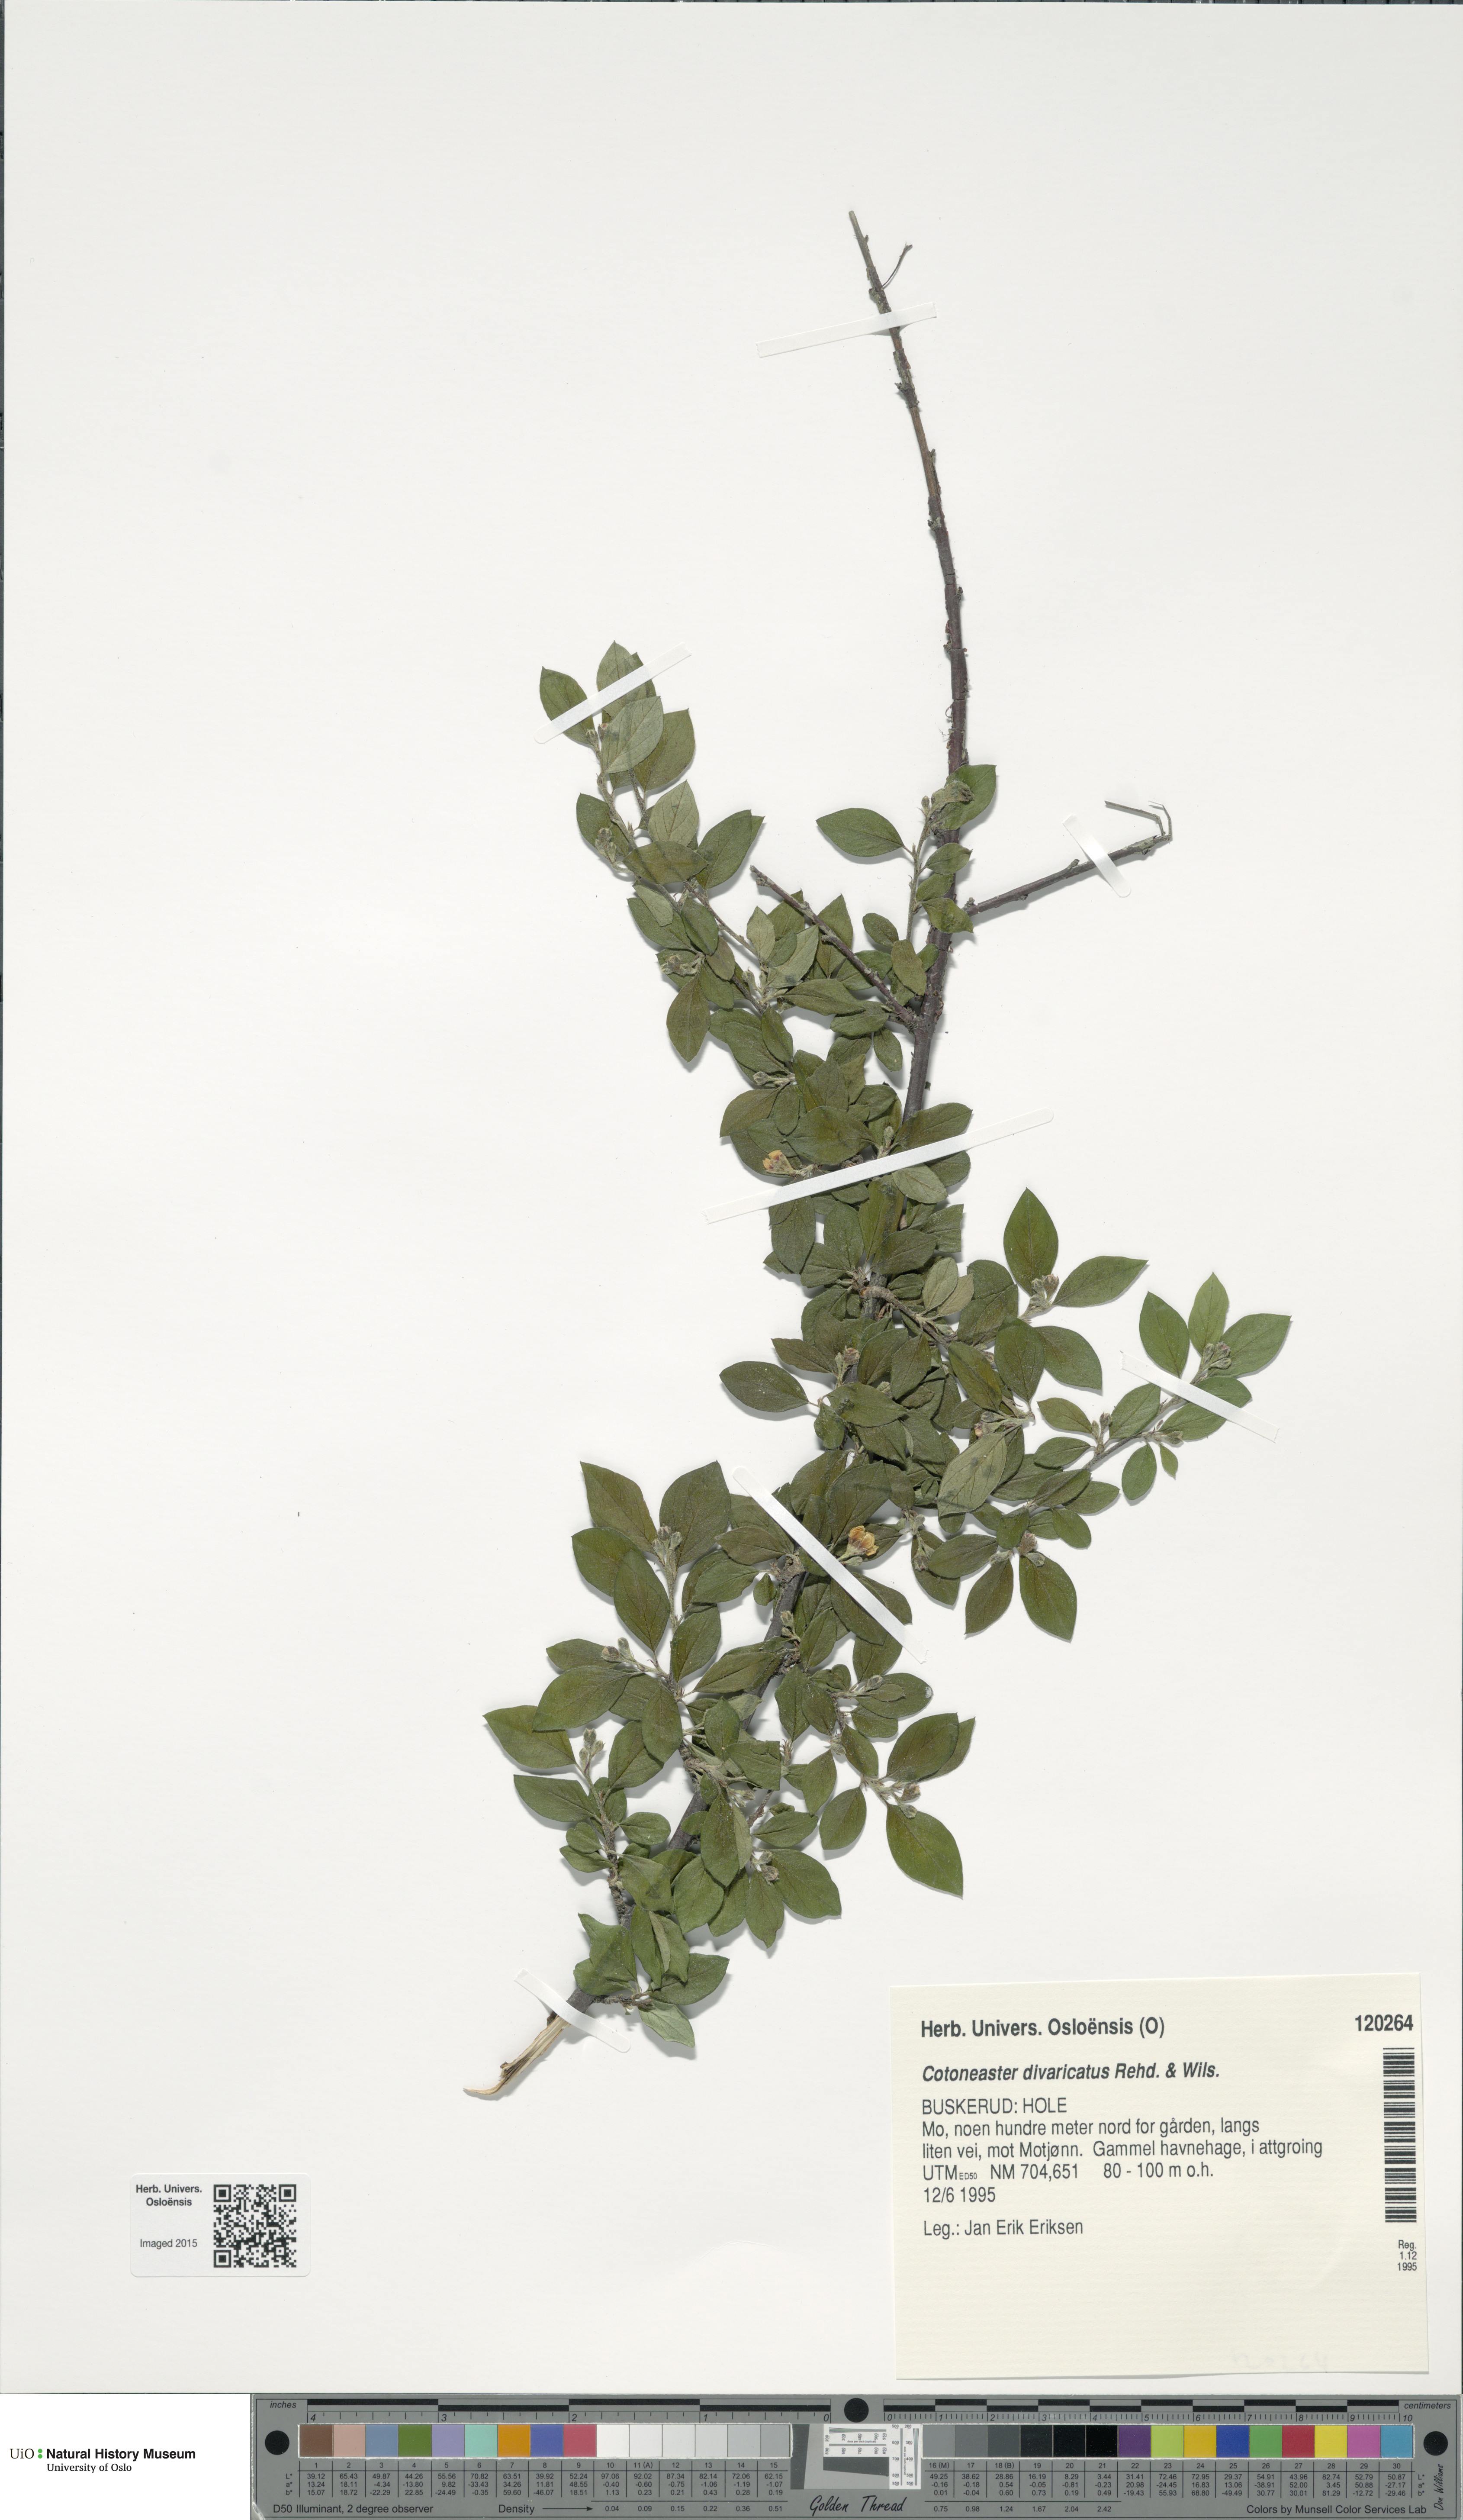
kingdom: Plantae
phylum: Tracheophyta
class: Magnoliopsida
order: Rosales
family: Rosaceae
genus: Cotoneaster
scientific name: Cotoneaster divaricatus
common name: Spreading cotoneaster
